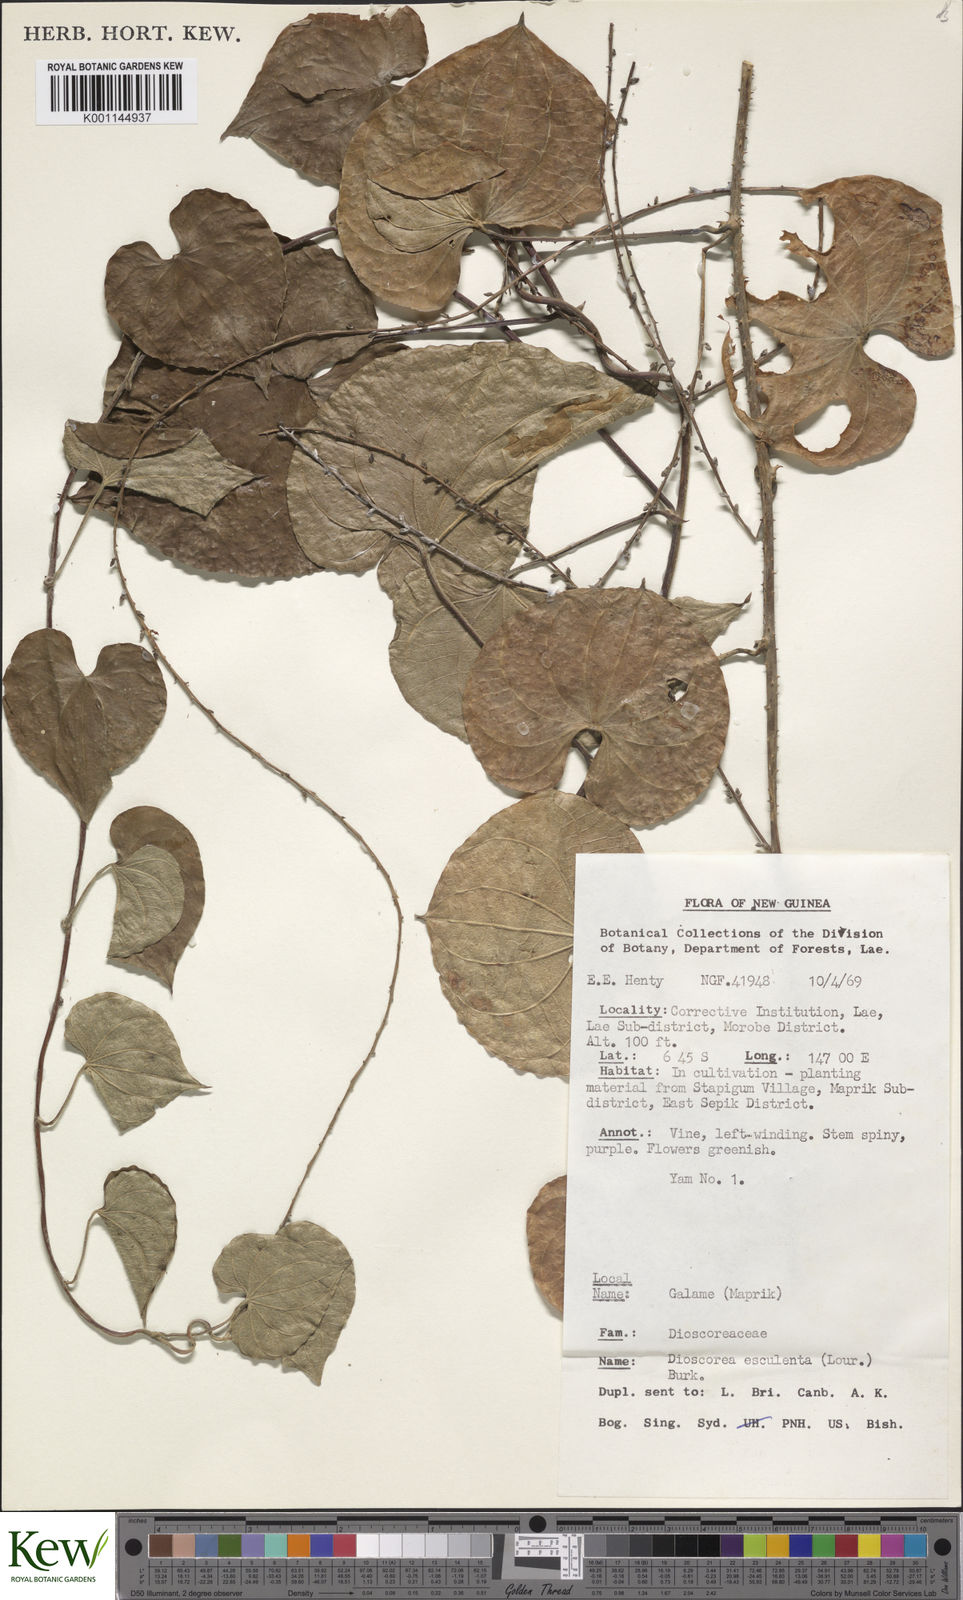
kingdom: Plantae
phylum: Tracheophyta
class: Liliopsida
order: Dioscoreales
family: Dioscoreaceae
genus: Dioscorea
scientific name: Dioscorea esculenta
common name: Chinese yam
